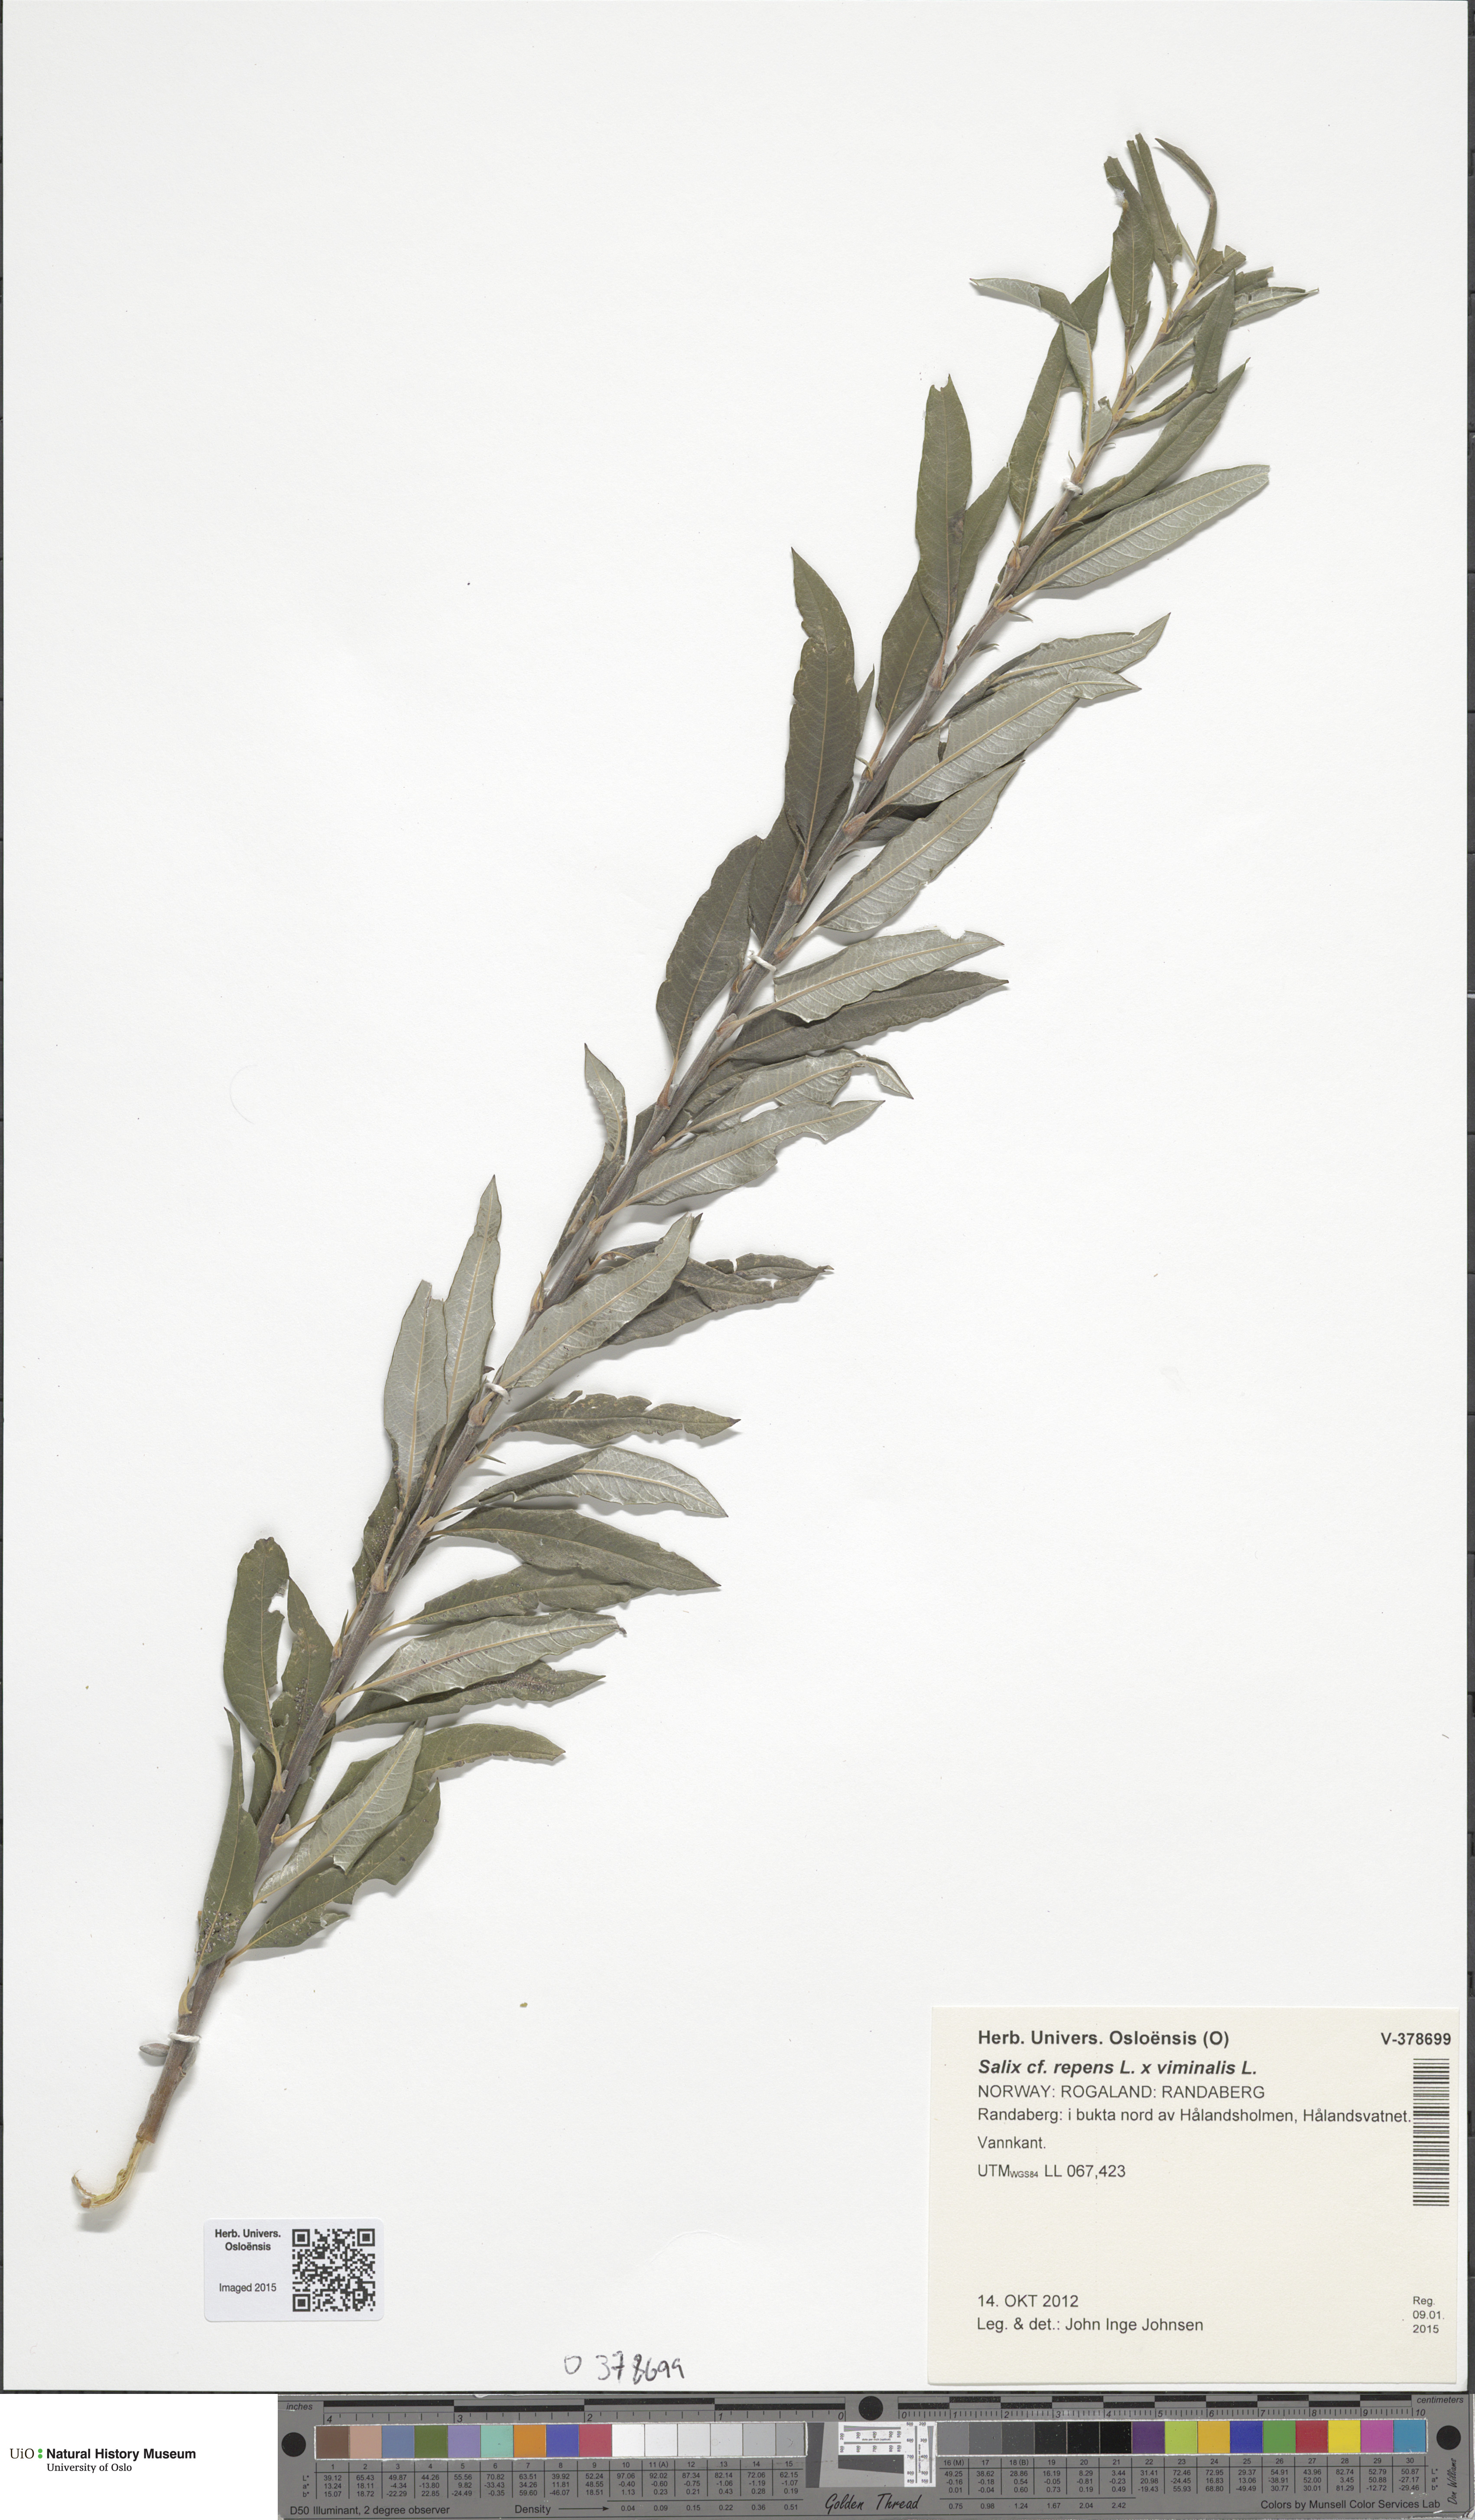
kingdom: Plantae
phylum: Tracheophyta
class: Magnoliopsida
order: Malpighiales
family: Salicaceae
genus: Salix
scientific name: Salix
